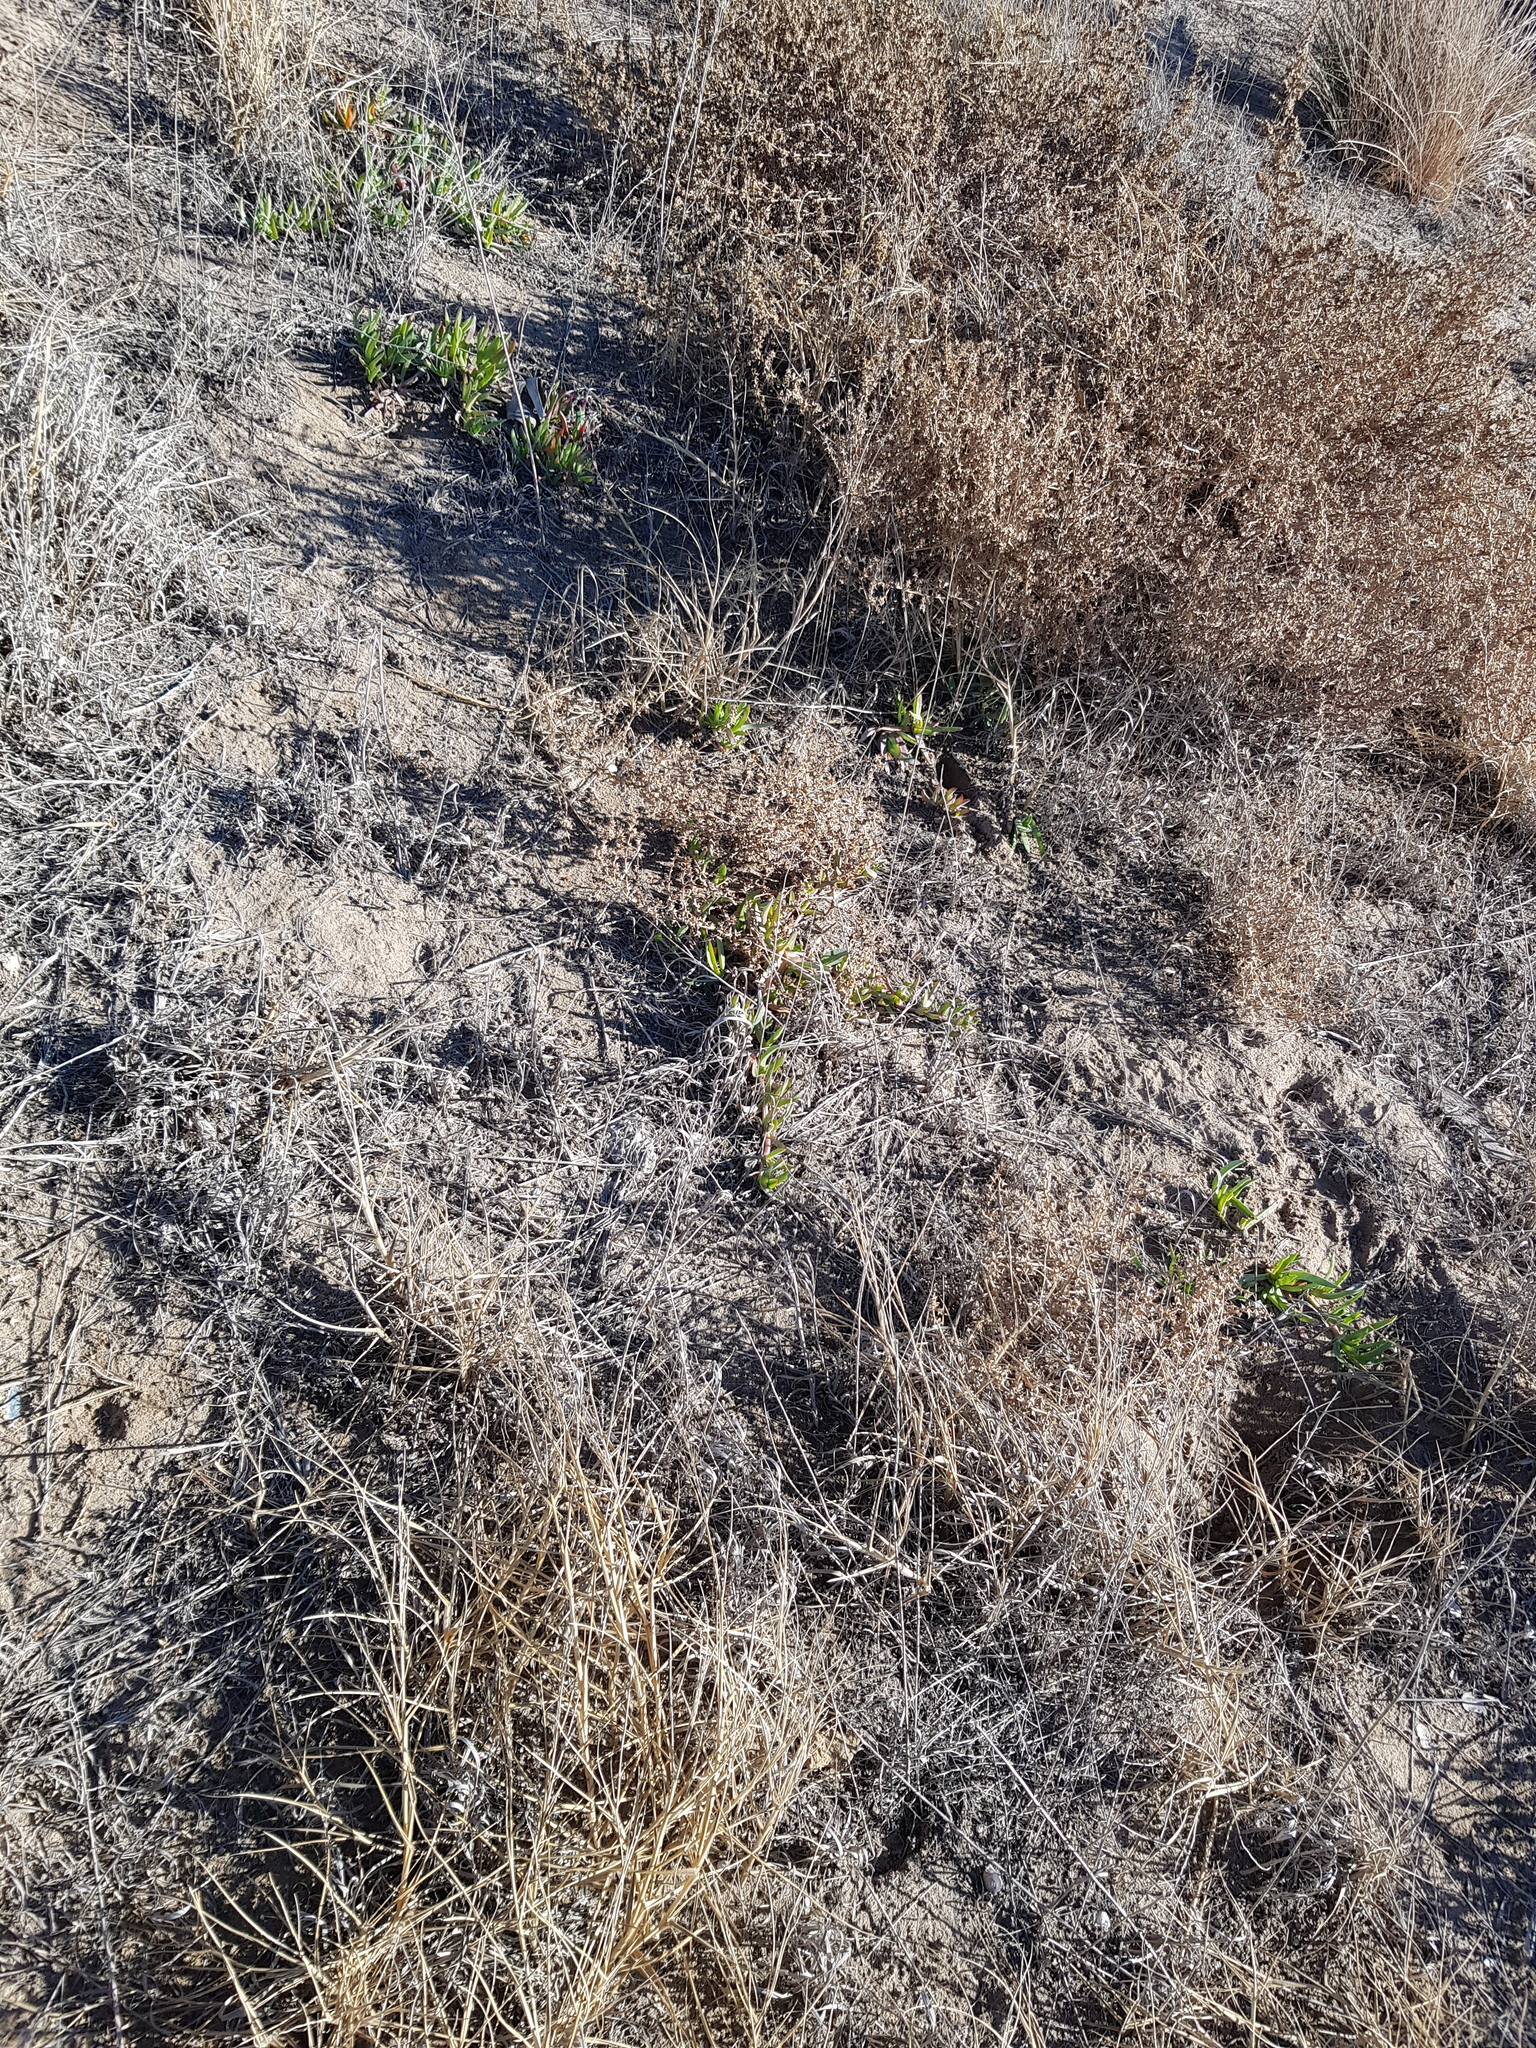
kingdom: Plantae
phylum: Tracheophyta
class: Magnoliopsida
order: Caryophyllales
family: Aizoaceae
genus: Carpobrotus
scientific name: Carpobrotus edulis
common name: Hottentot-fig
